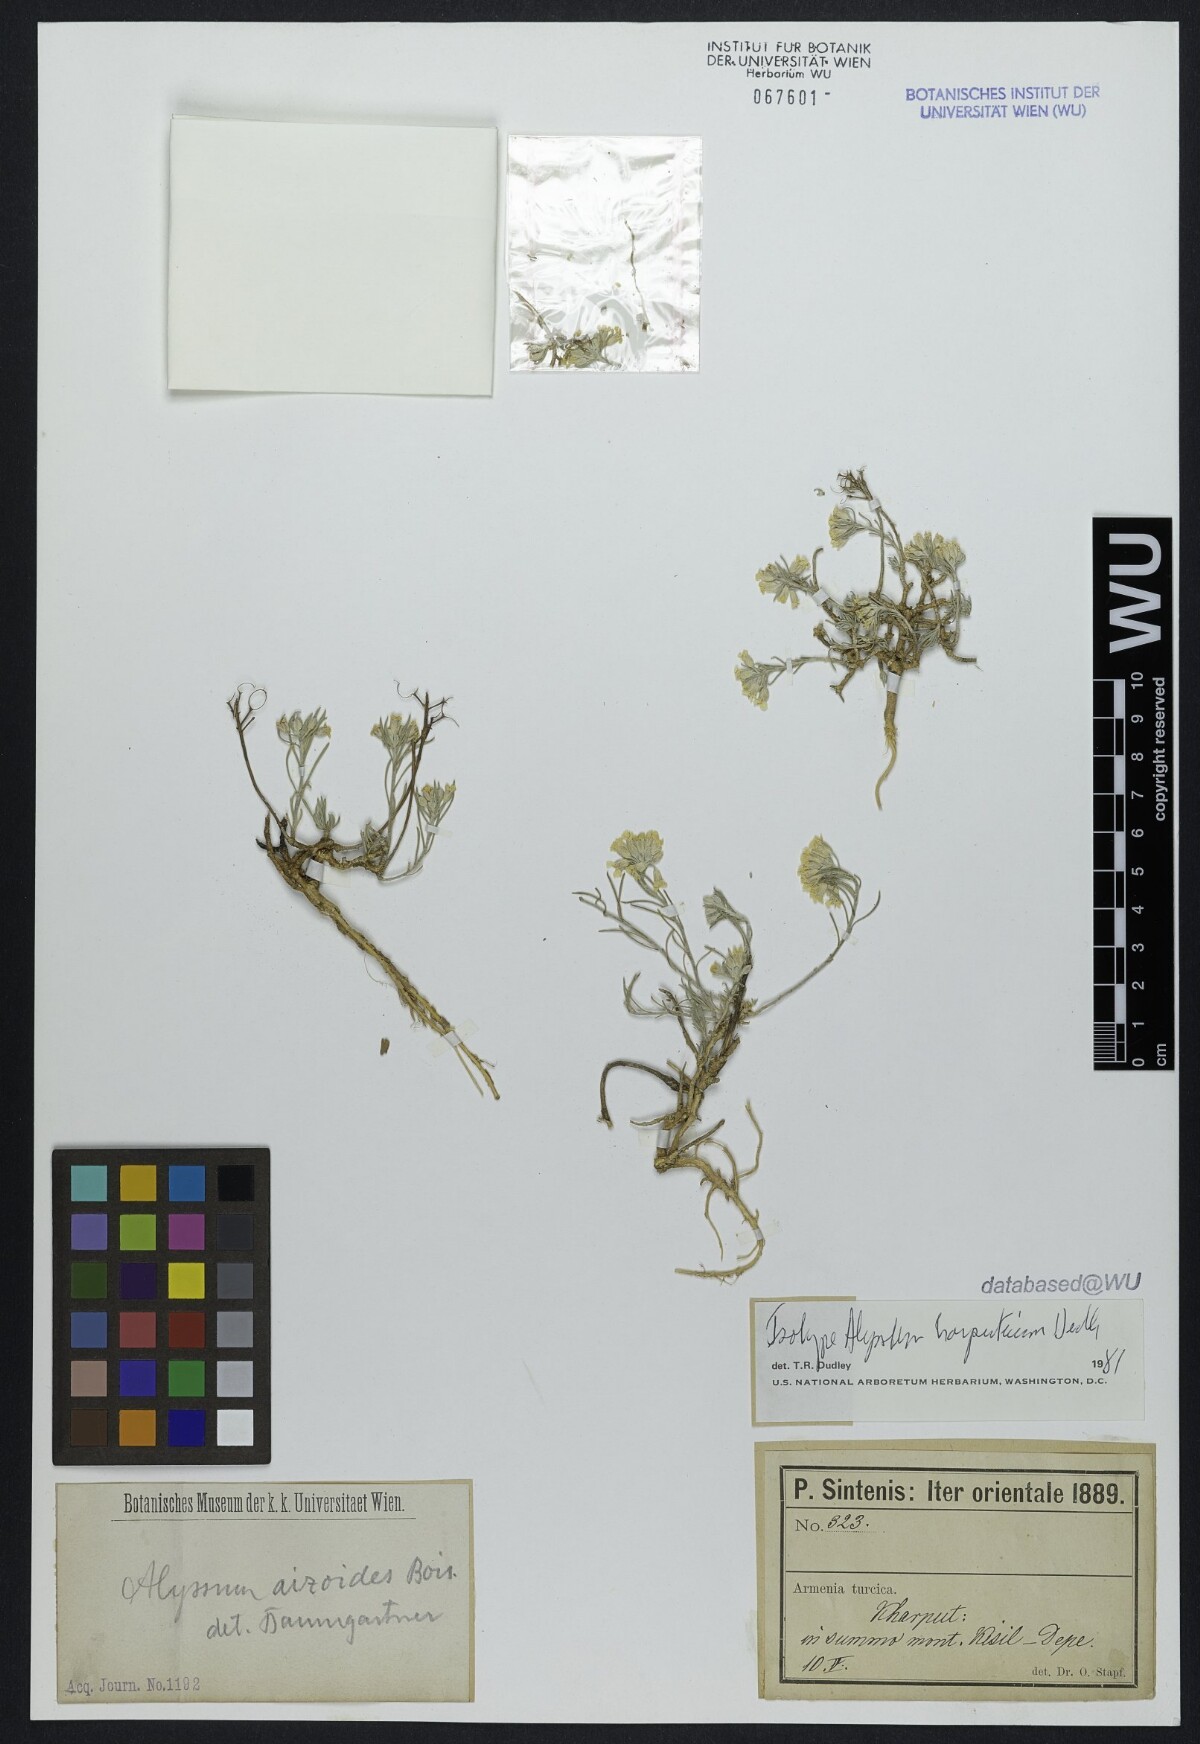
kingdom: Plantae
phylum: Tracheophyta
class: Magnoliopsida
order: Brassicales
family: Brassicaceae
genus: Alyssum
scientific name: Alyssum harputicum
